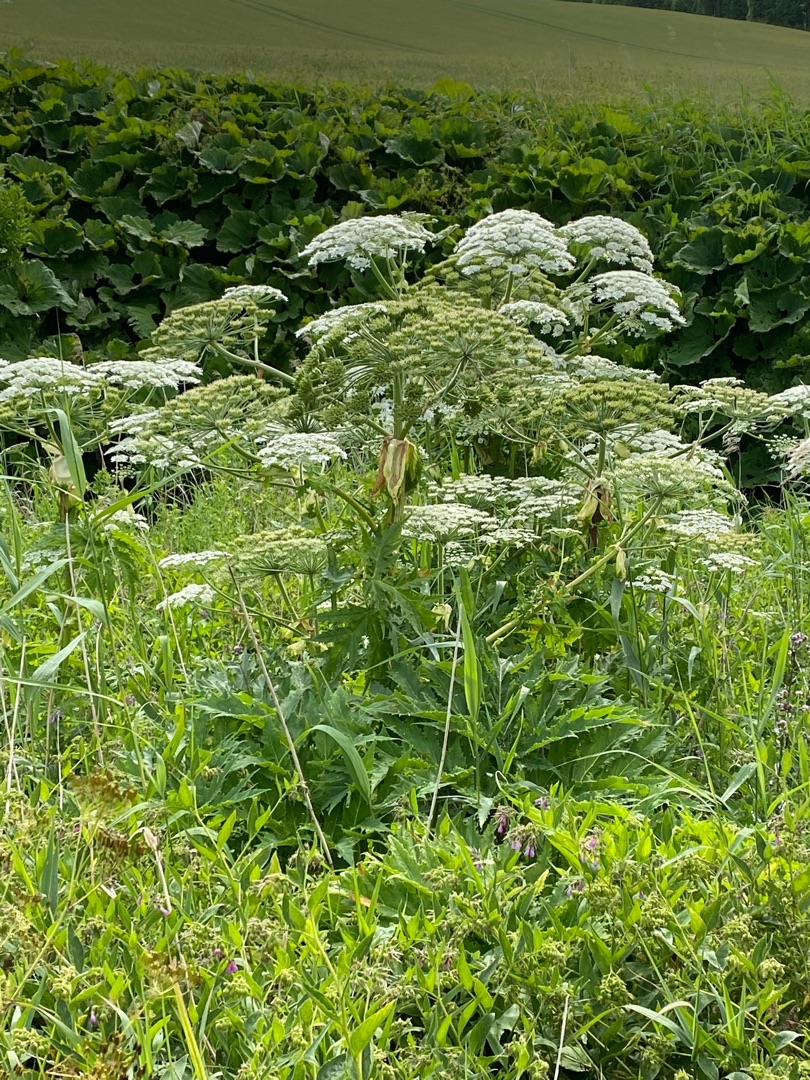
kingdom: Plantae
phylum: Tracheophyta
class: Magnoliopsida
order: Apiales
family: Apiaceae
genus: Heracleum
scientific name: Heracleum mantegazzianum
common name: Kæmpe-bjørneklo
